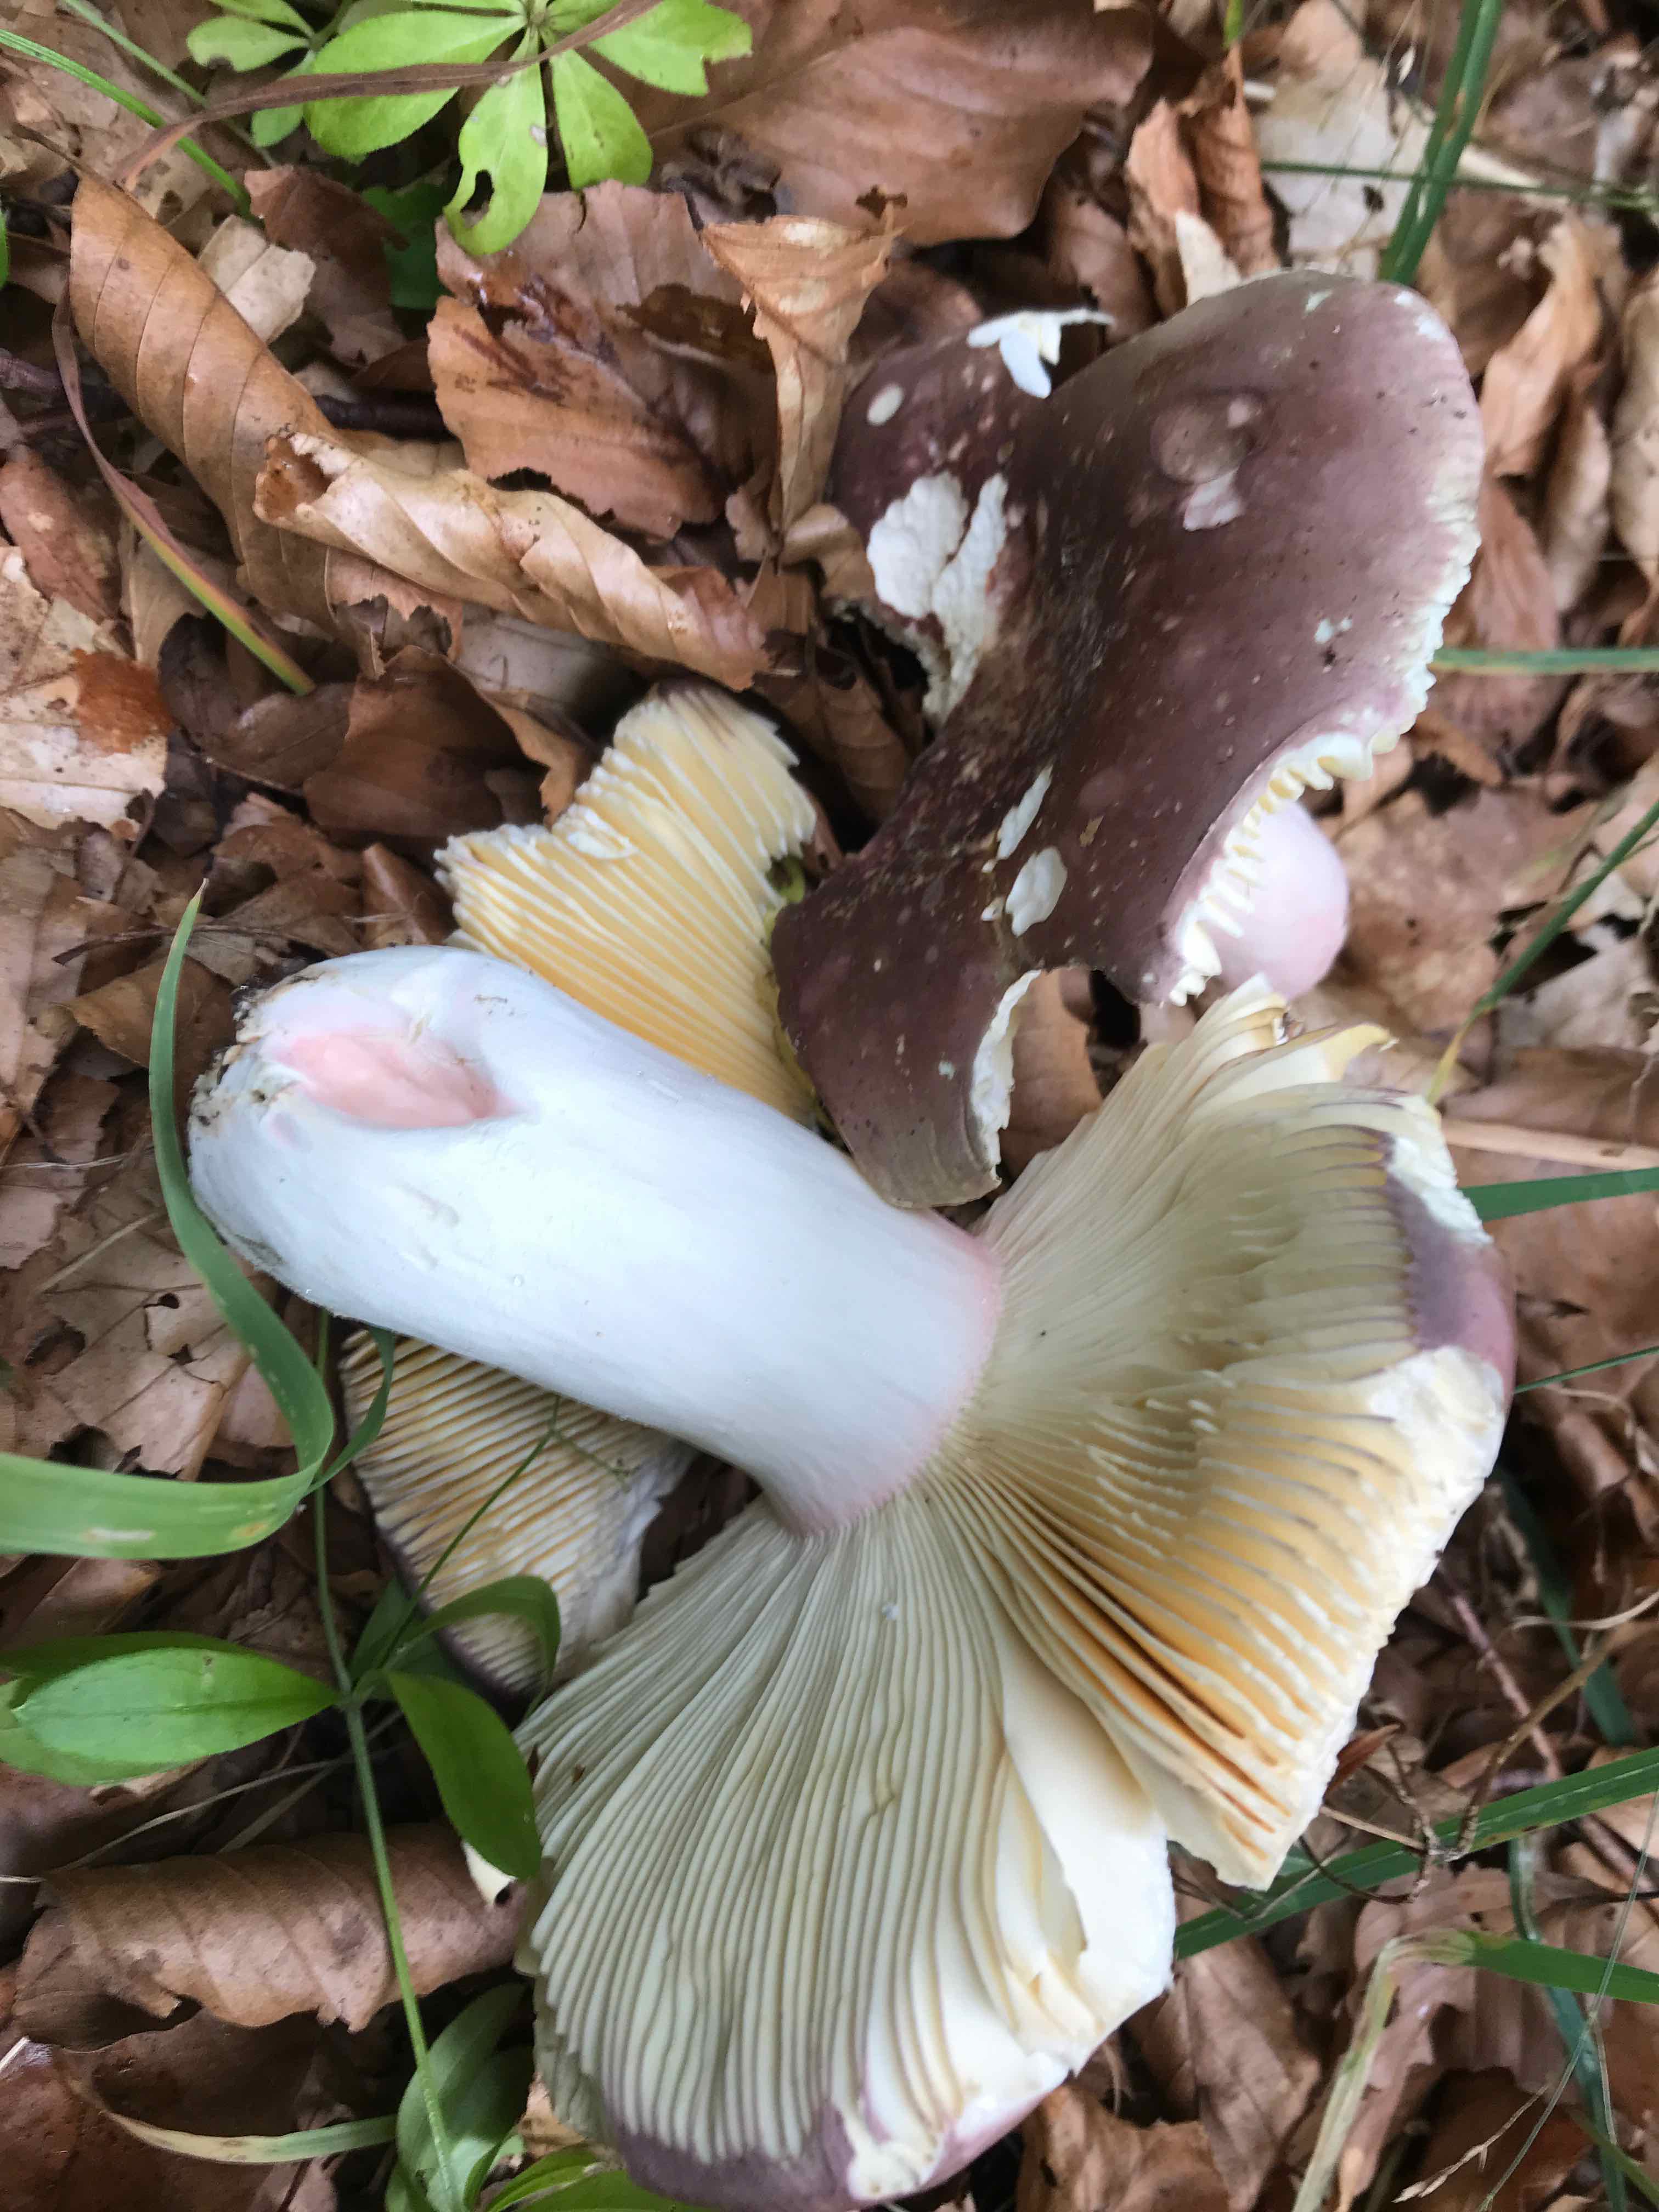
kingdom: Fungi
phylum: Basidiomycota
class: Agaricomycetes
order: Russulales
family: Russulaceae
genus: Russula
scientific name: Russula olivacea
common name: stor skørhat
